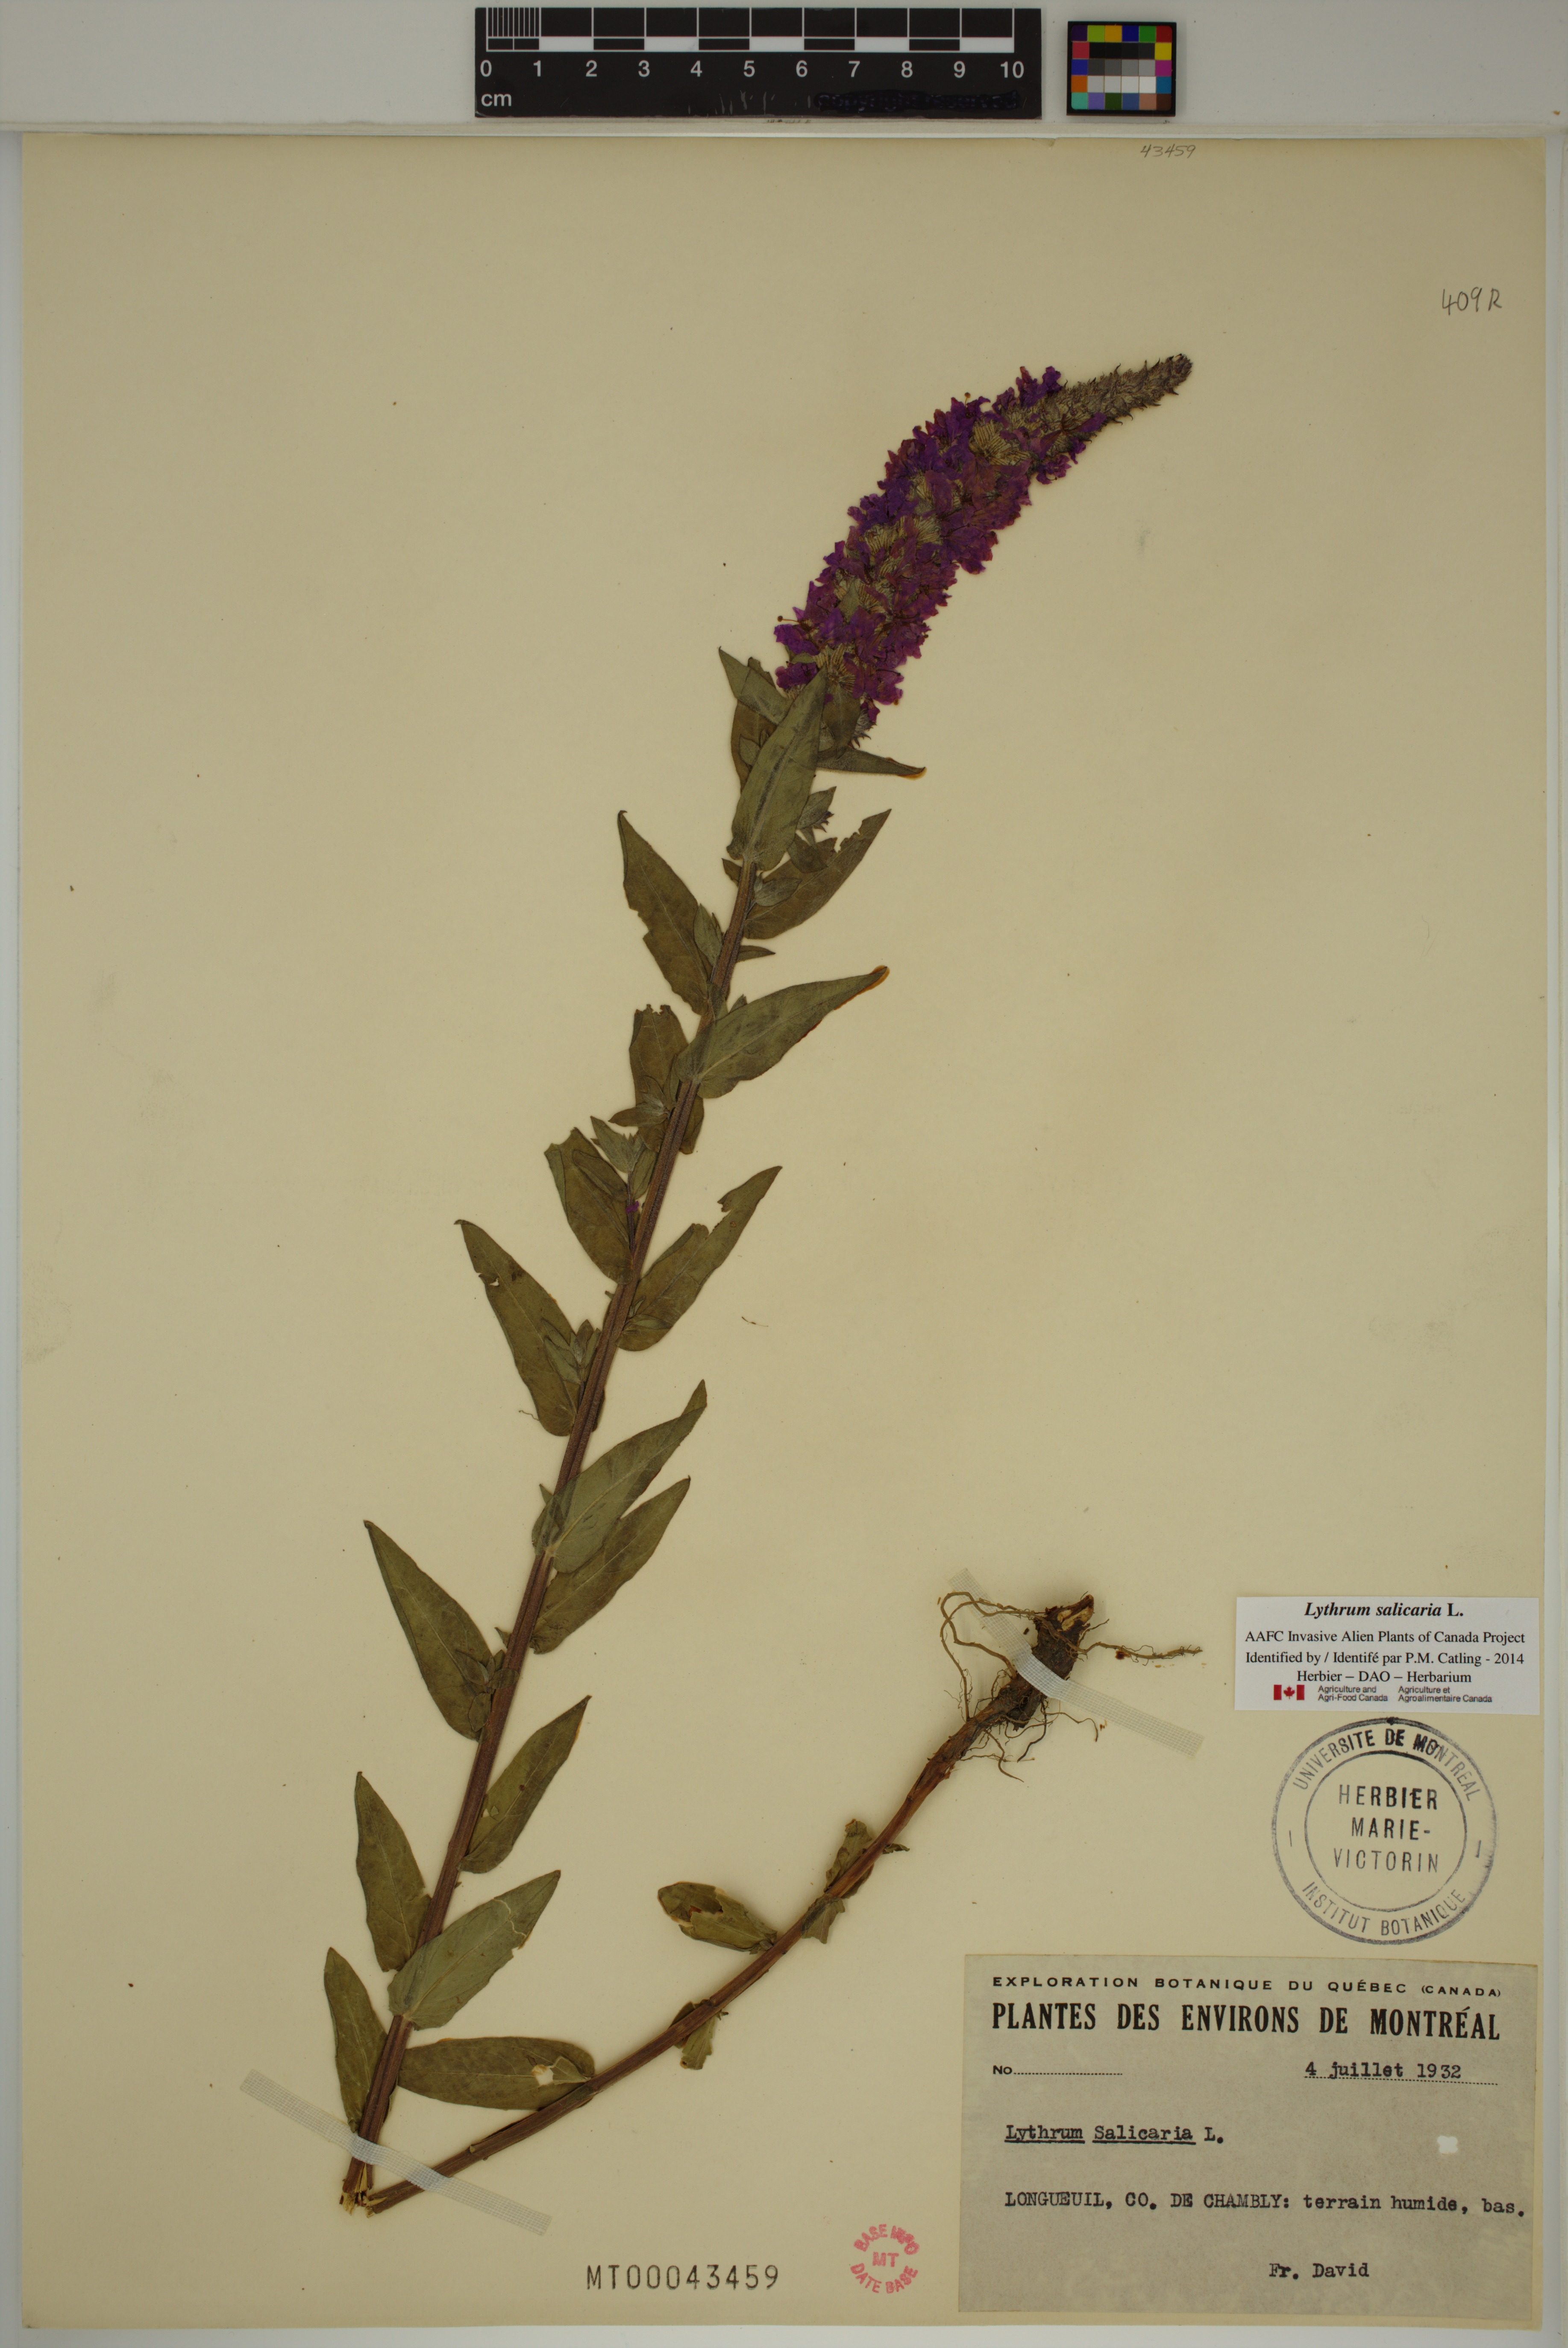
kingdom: Plantae
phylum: Tracheophyta
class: Magnoliopsida
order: Myrtales
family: Lythraceae
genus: Lythrum
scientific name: Lythrum salicaria
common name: Purple loosestrife
